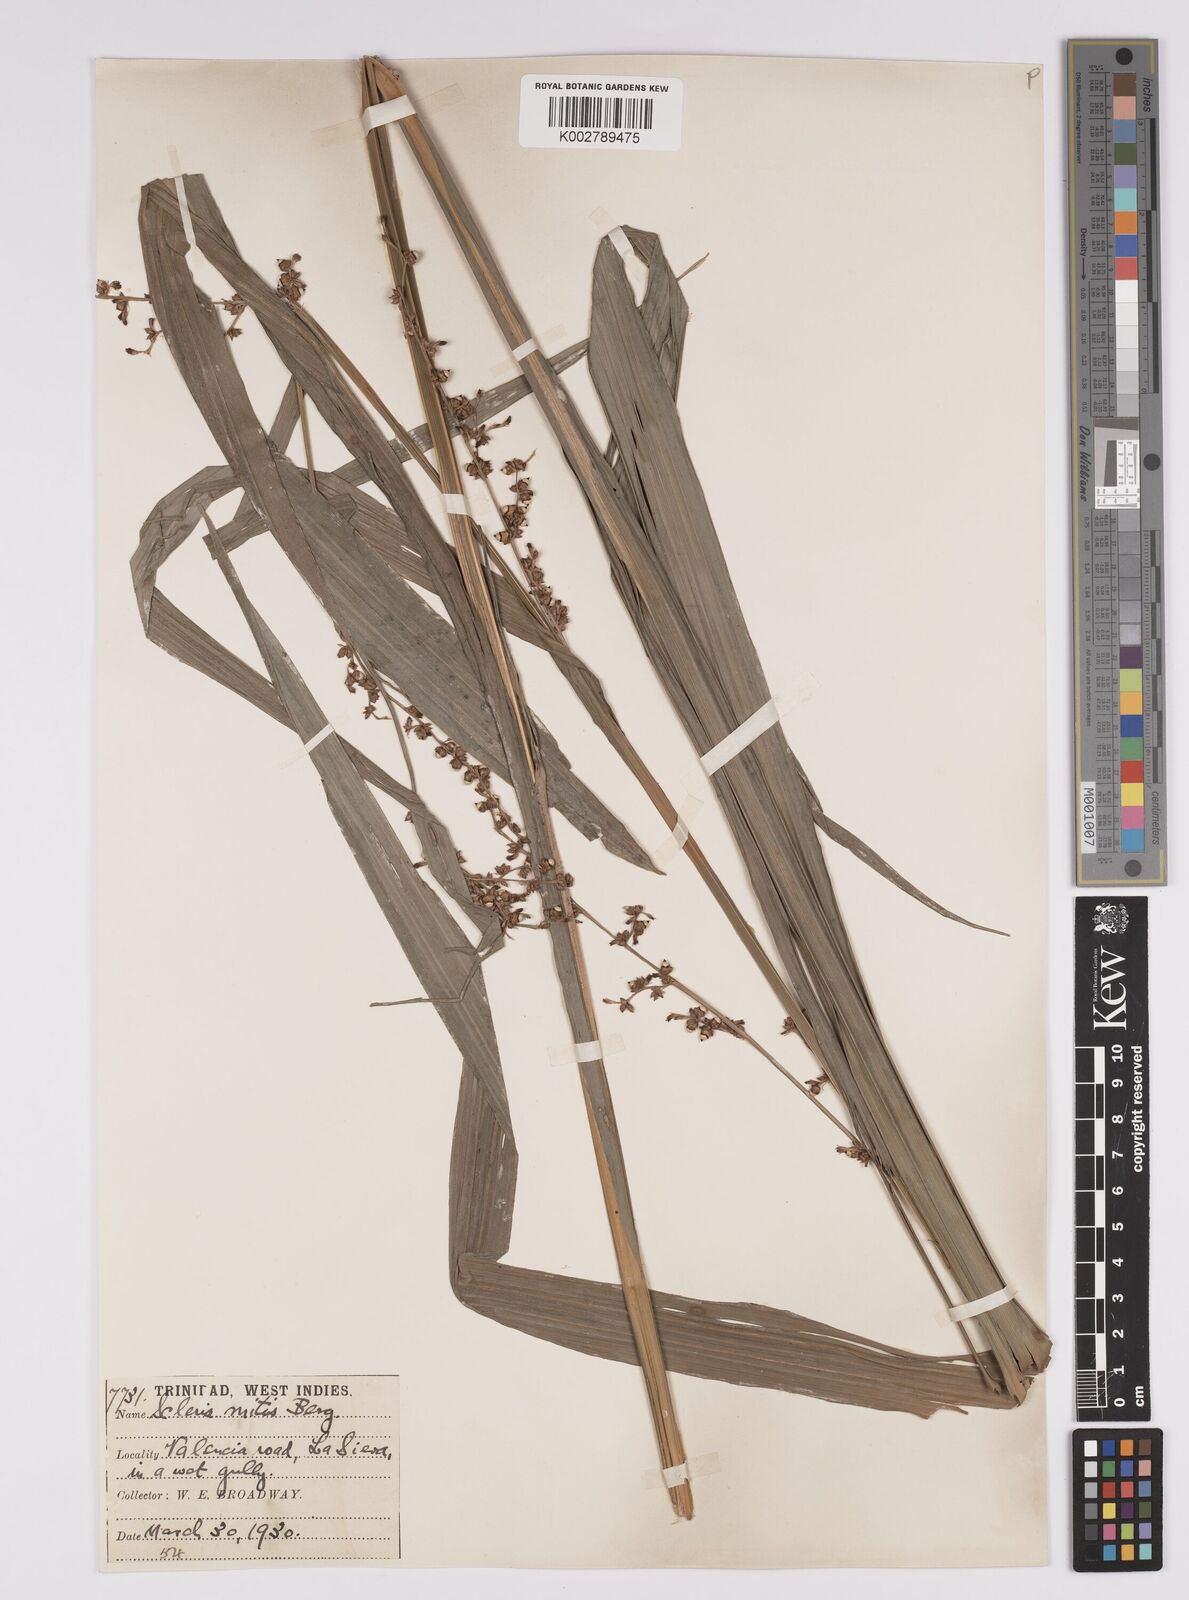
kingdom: Plantae
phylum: Tracheophyta
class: Liliopsida
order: Poales
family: Cyperaceae
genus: Scleria
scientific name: Scleria mitis
